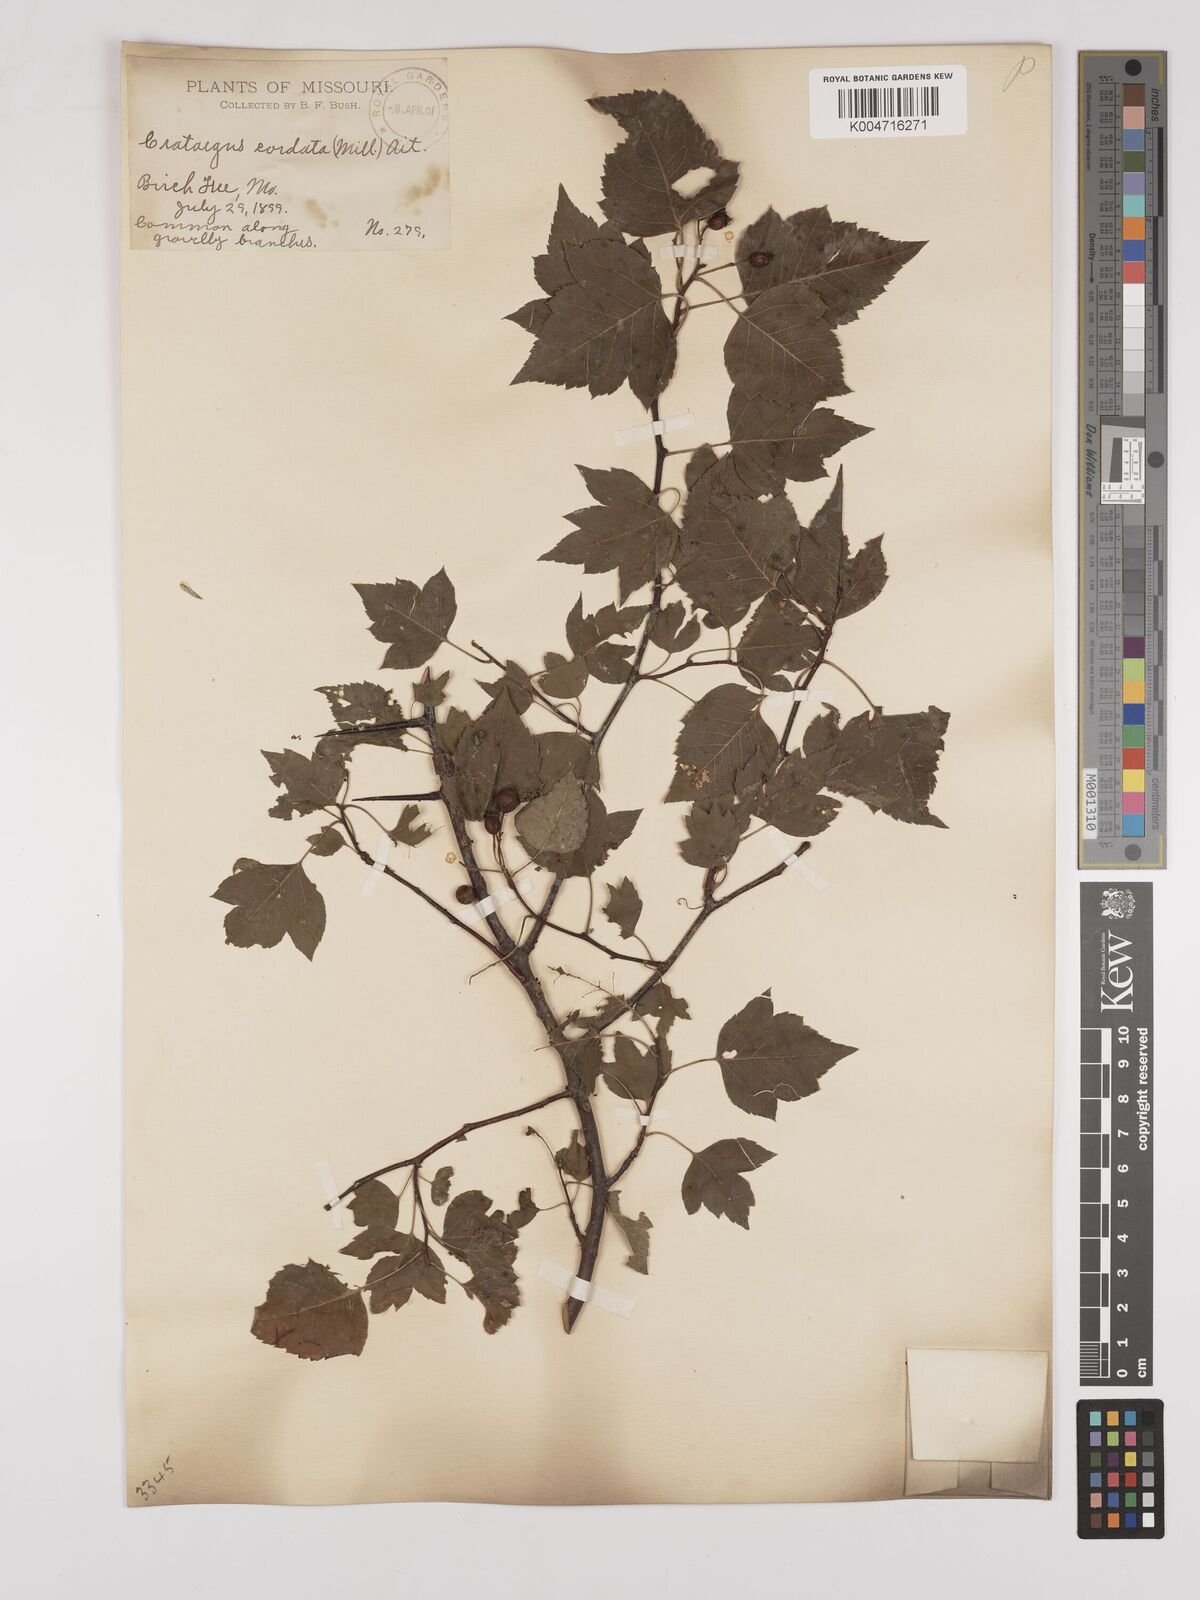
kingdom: Plantae
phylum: Tracheophyta
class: Magnoliopsida
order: Rosales
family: Rosaceae
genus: Crataegus
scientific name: Crataegus phaenopyrum
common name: Washington hawthorn
